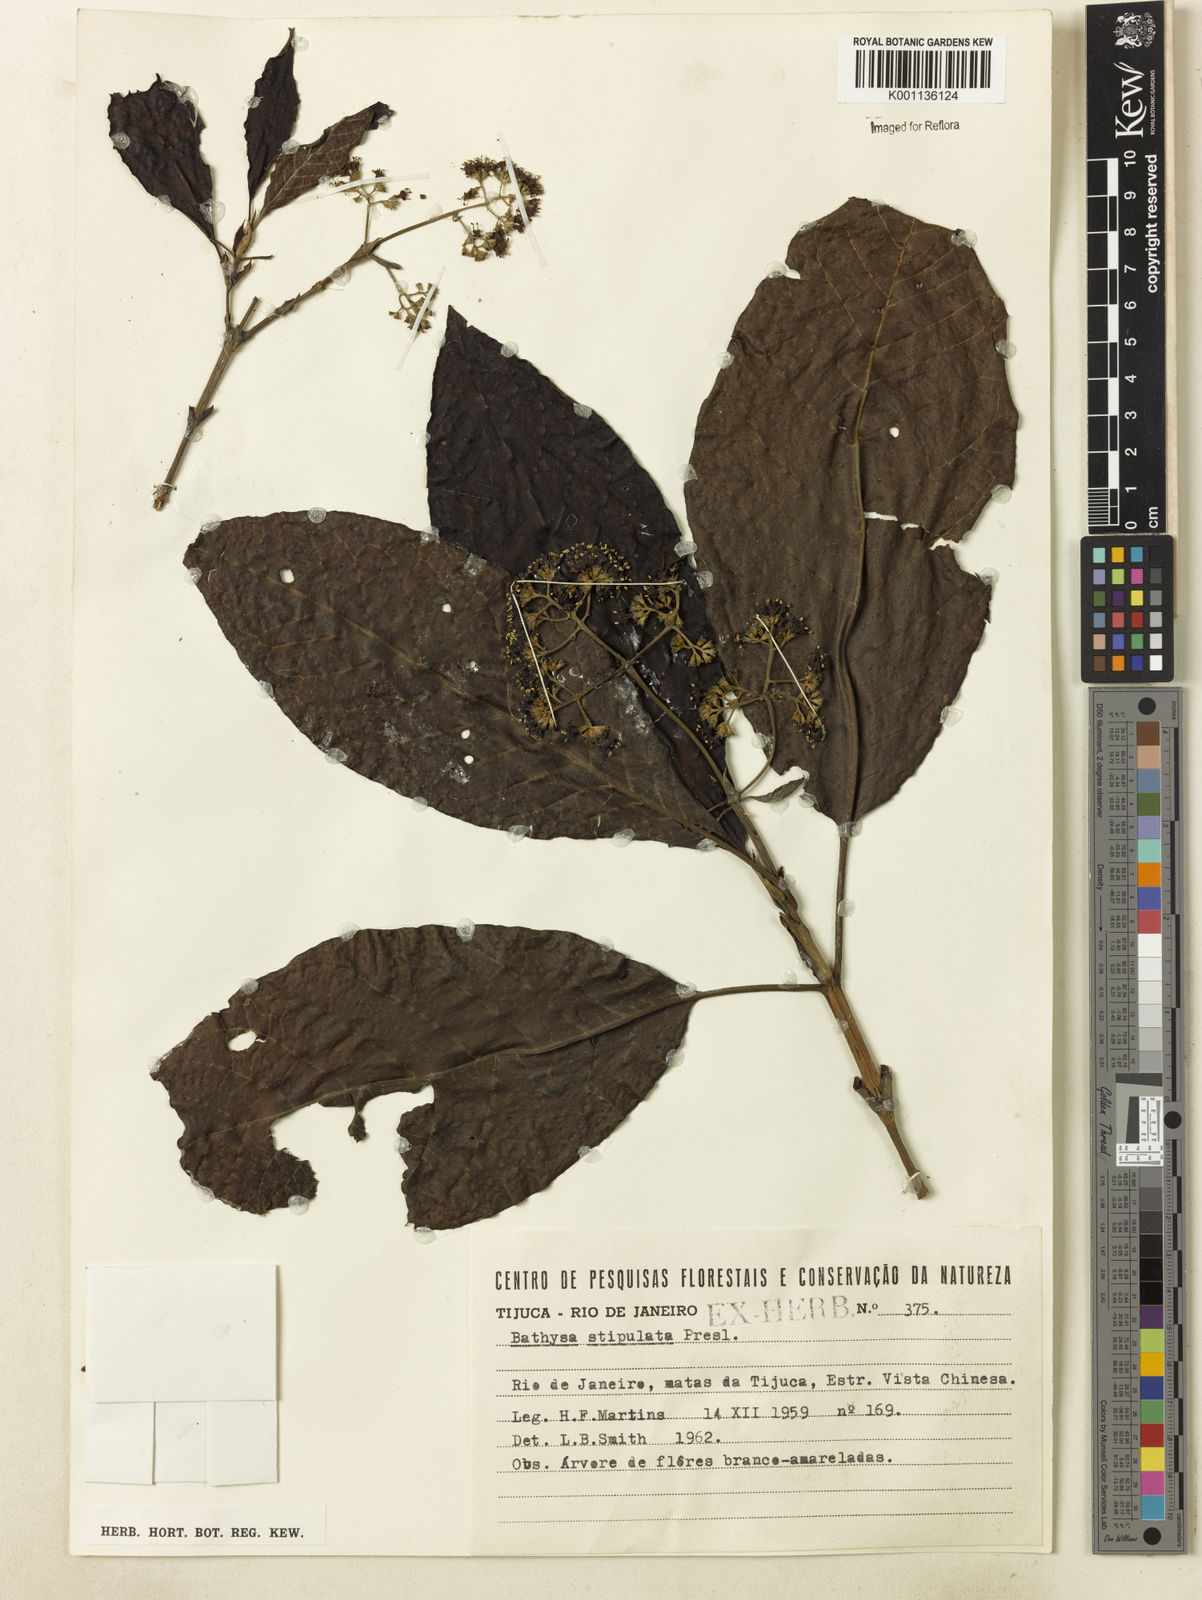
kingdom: Plantae
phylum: Tracheophyta
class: Magnoliopsida
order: Gentianales
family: Rubiaceae
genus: Bathysa
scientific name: Bathysa stipulata
